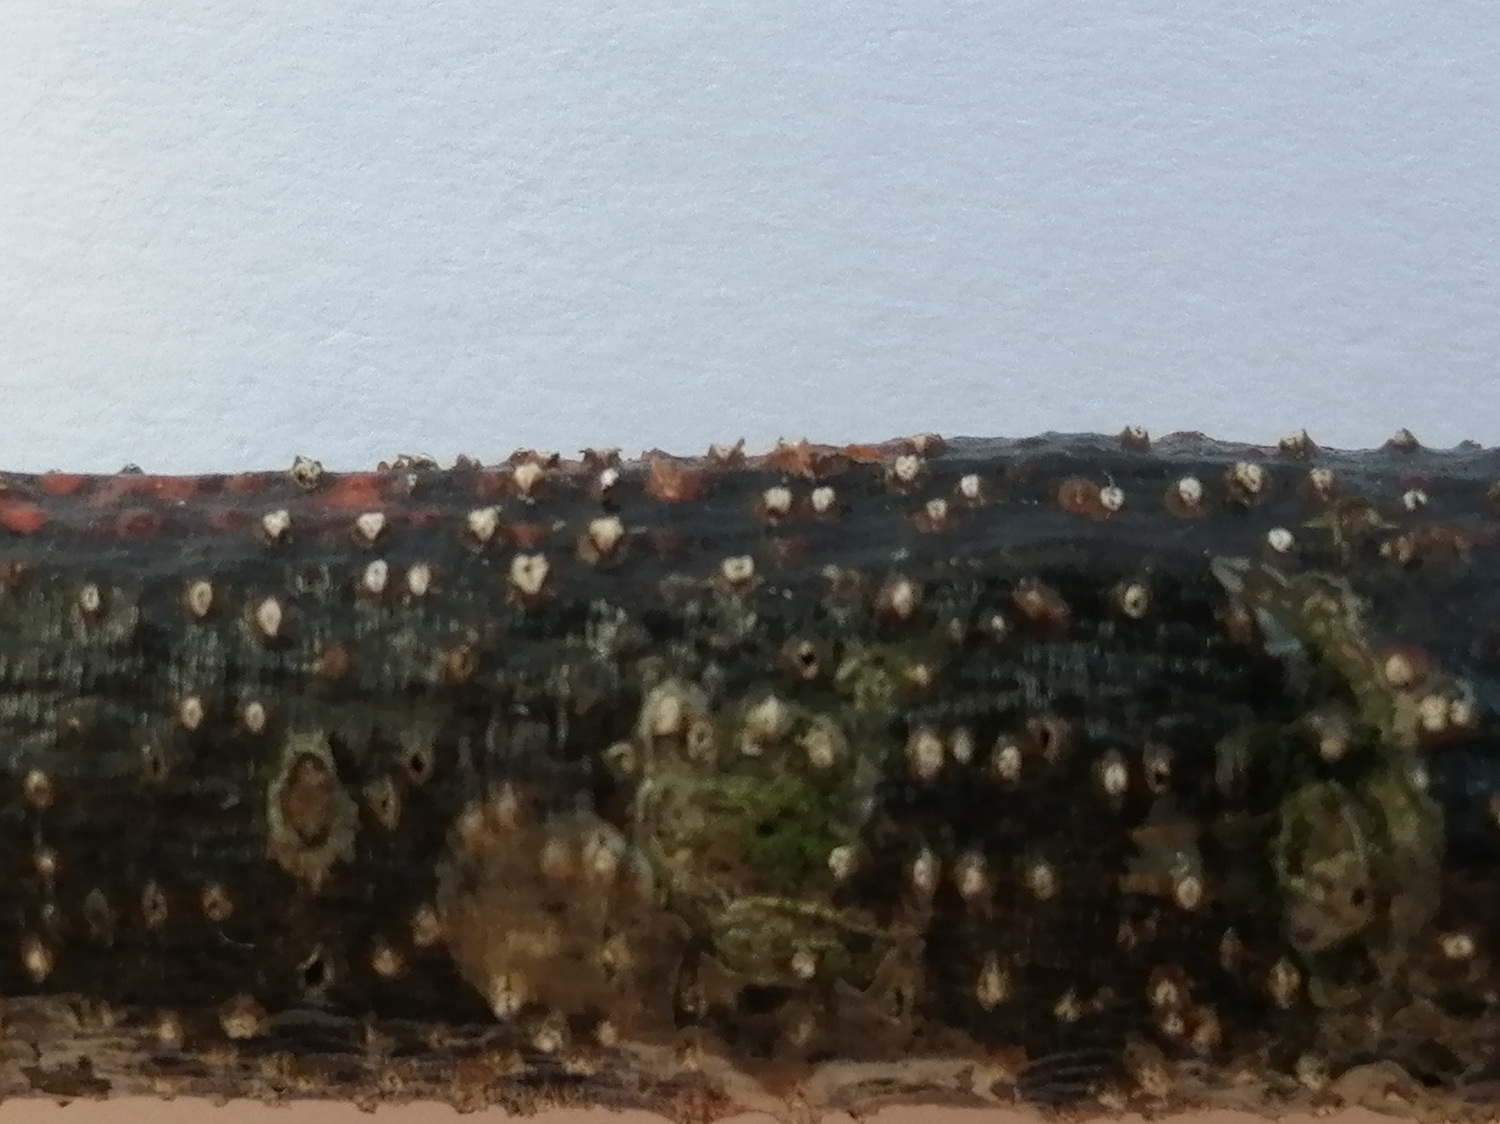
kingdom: Fungi
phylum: Ascomycota
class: Sordariomycetes
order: Diaporthales
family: Valsaceae
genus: Cytospora
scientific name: Cytospora
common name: kulknippe
